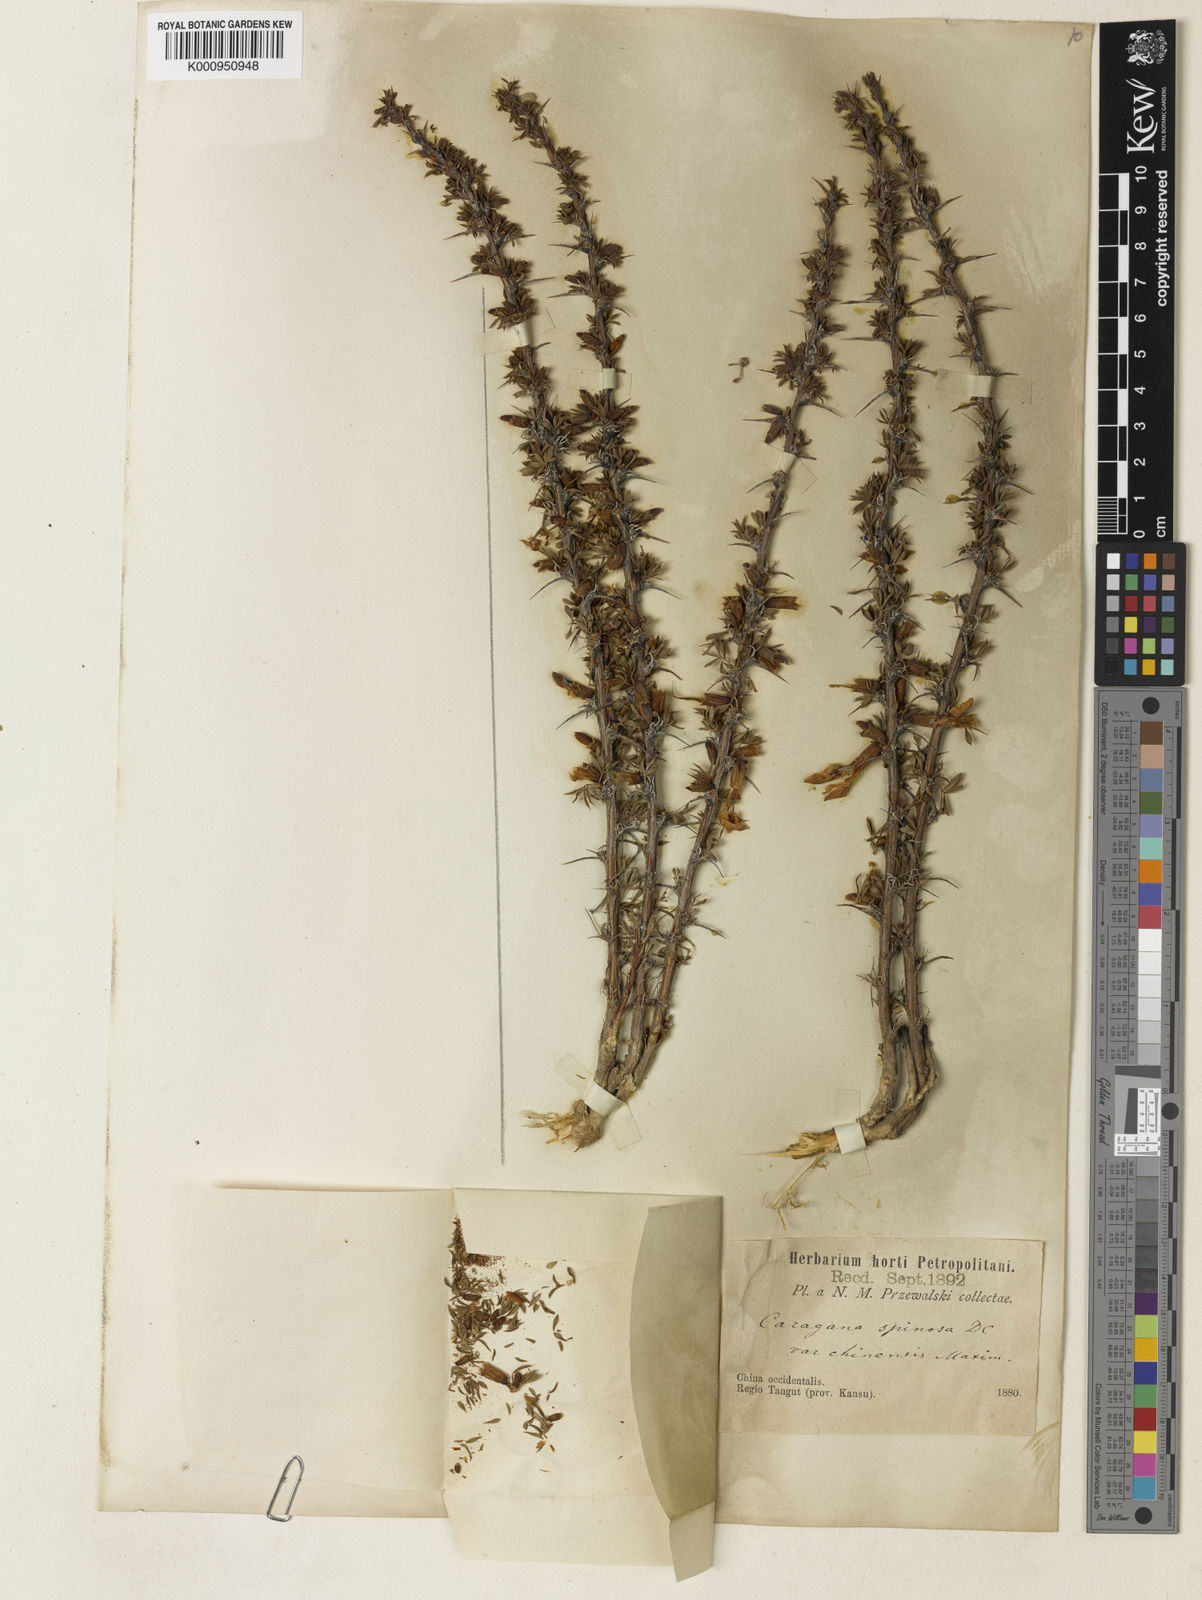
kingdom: Plantae
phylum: Tracheophyta
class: Magnoliopsida
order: Fabales
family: Fabaceae
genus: Caragana
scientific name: Caragana erinacea
